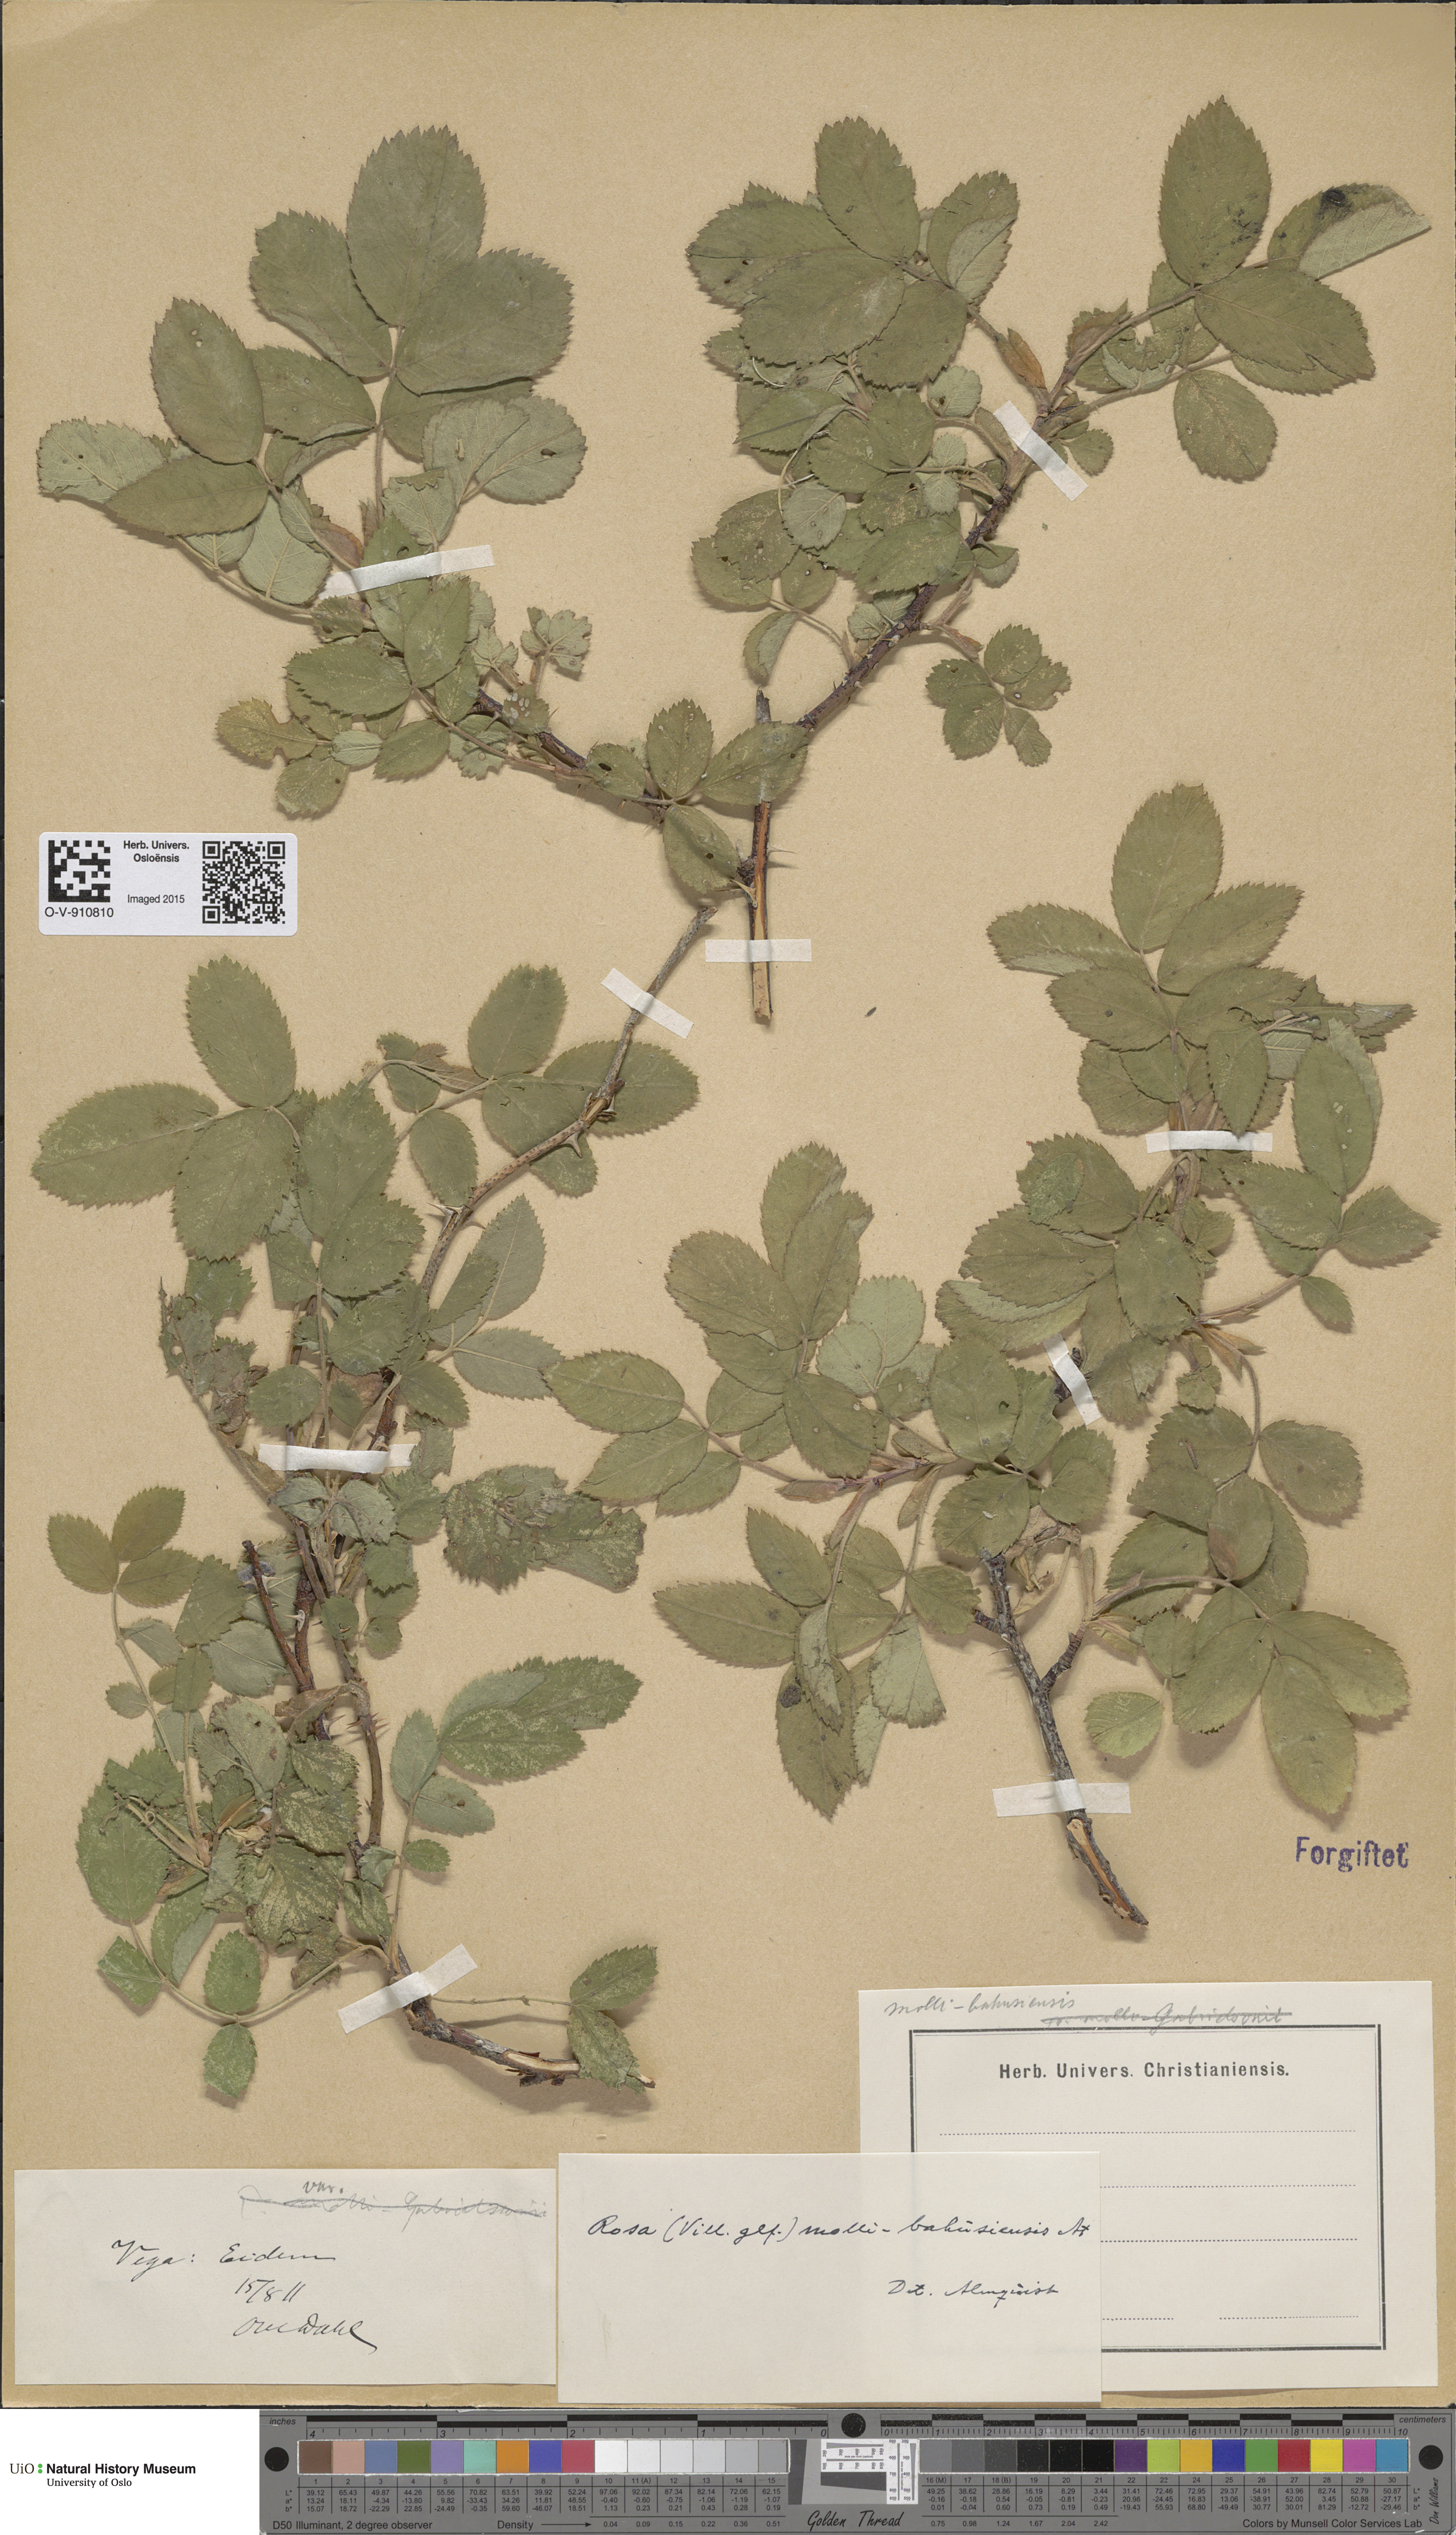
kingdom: Plantae
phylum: Tracheophyta
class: Magnoliopsida
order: Rosales
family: Rosaceae
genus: Rosa
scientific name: Rosa mollis
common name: Rose
